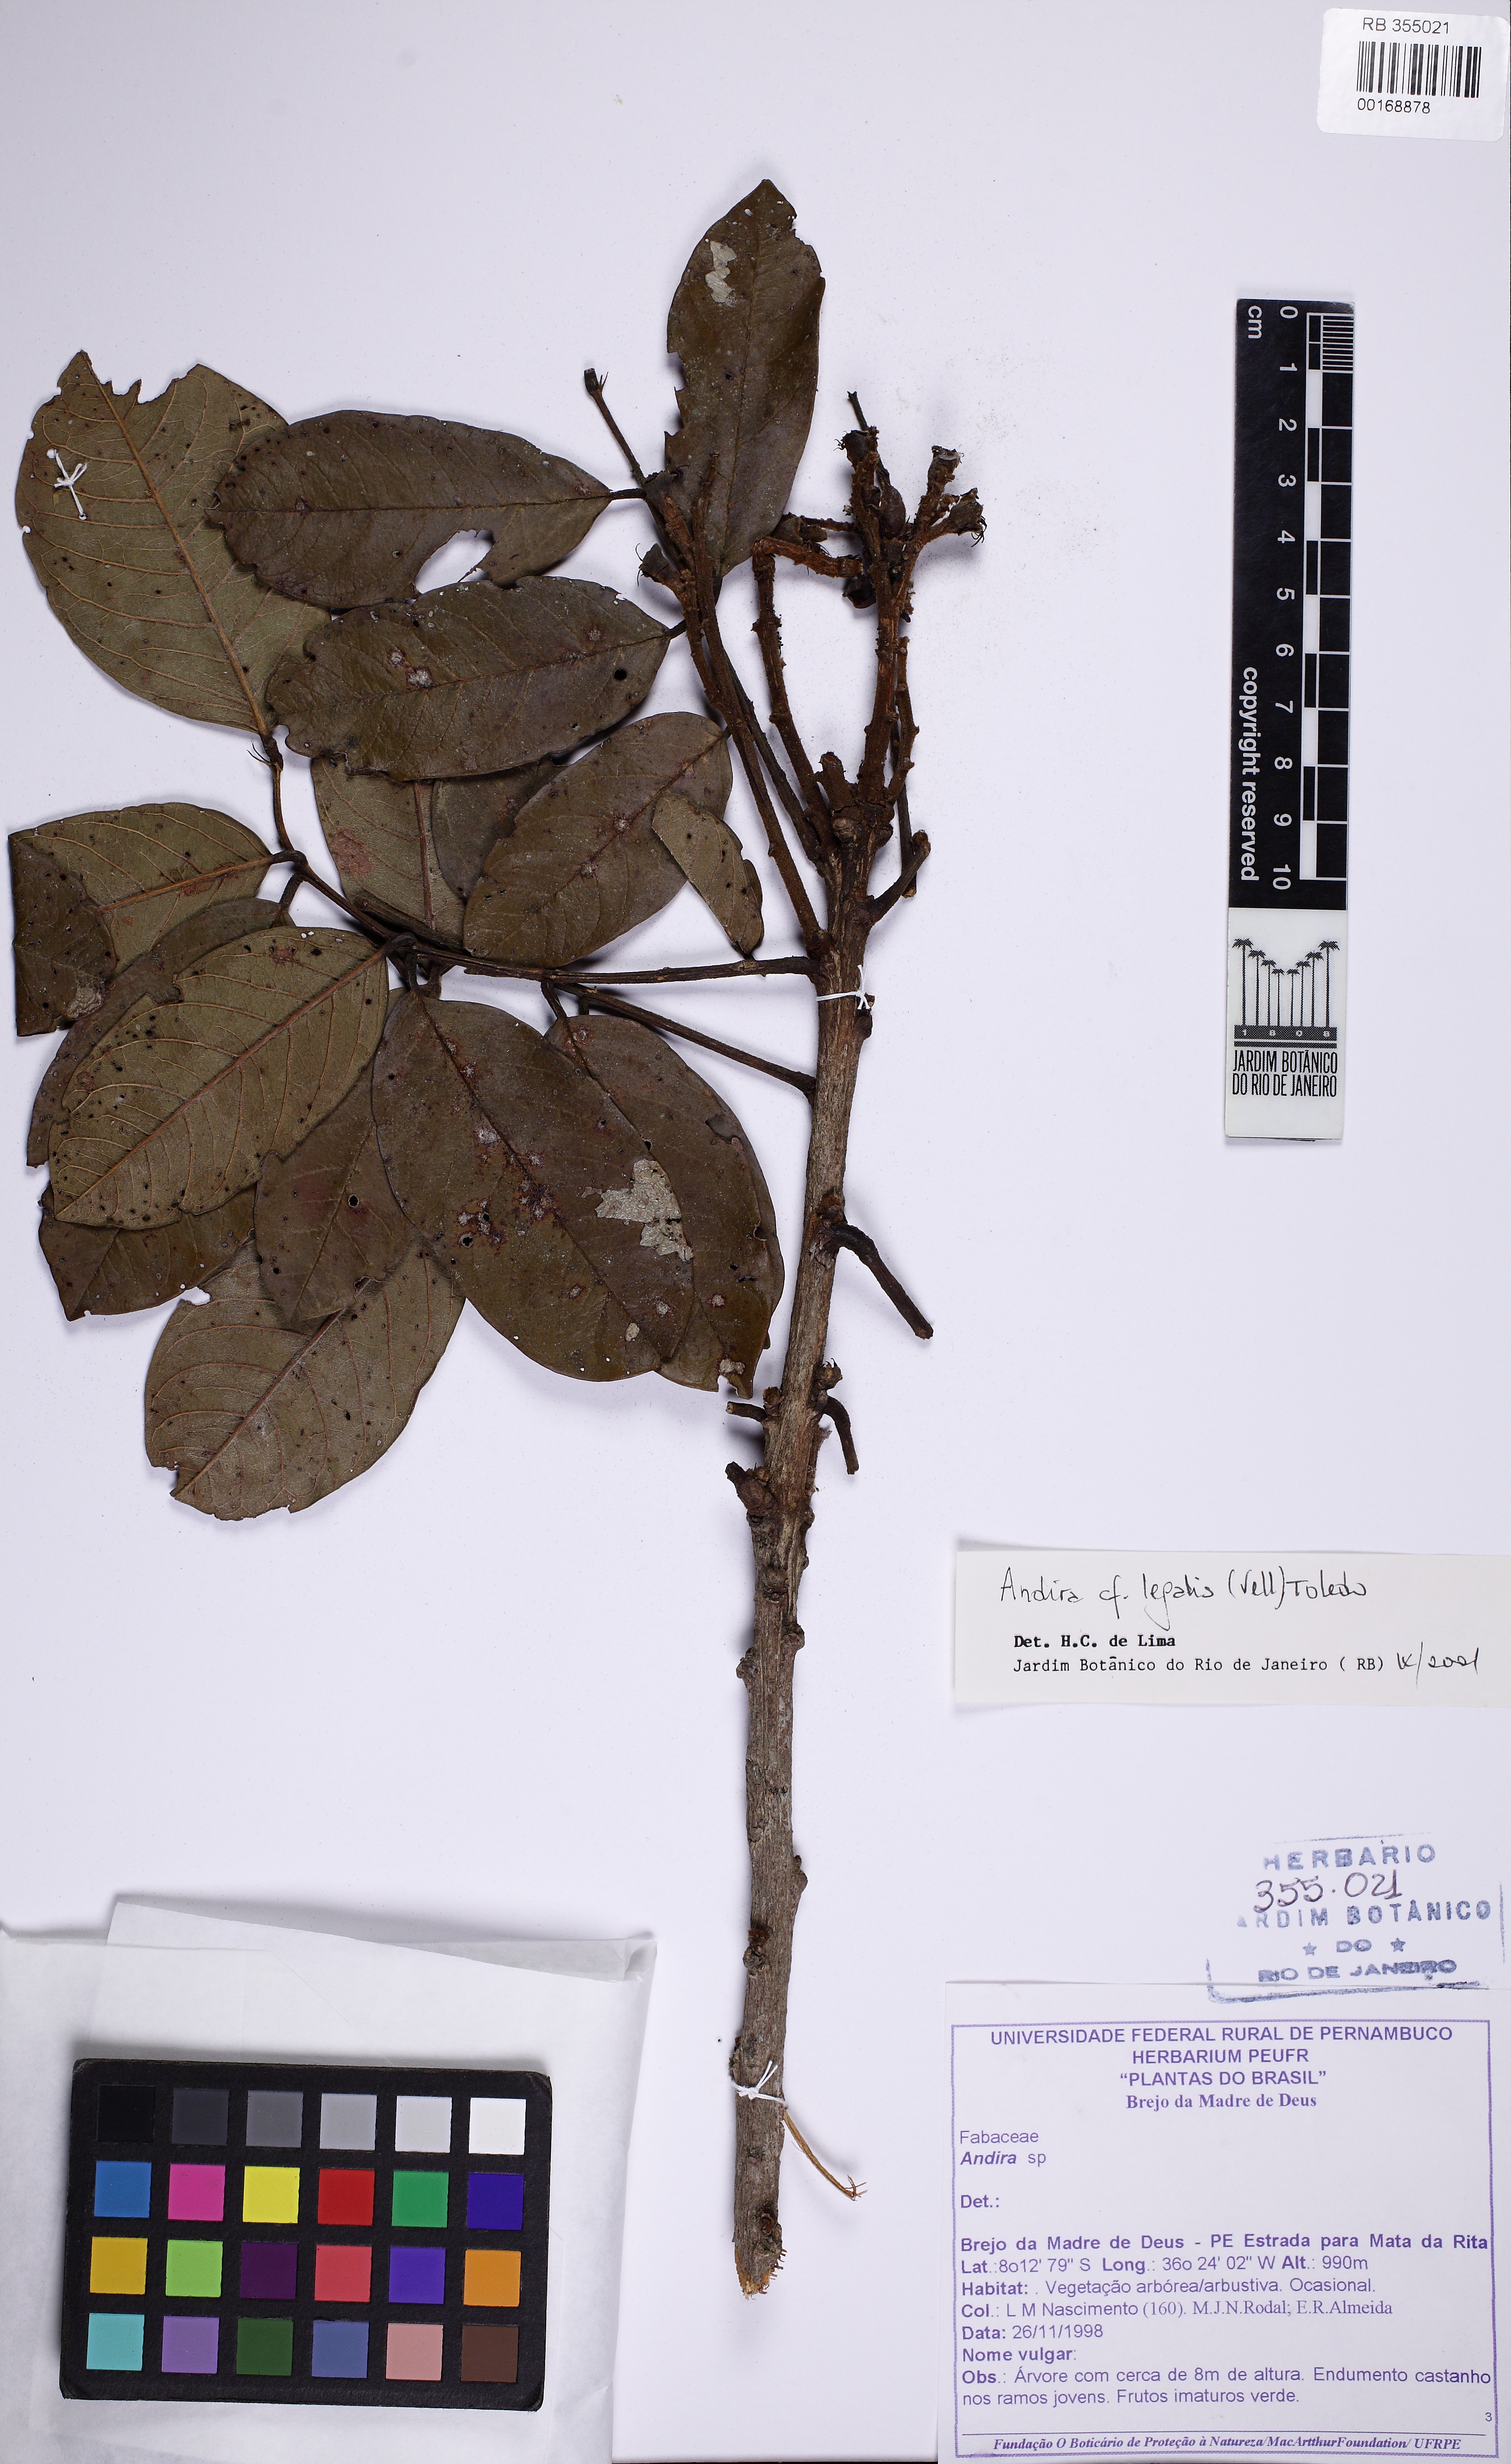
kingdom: Plantae
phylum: Tracheophyta
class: Magnoliopsida
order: Fabales
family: Fabaceae
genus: Andira
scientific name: Andira legalis
